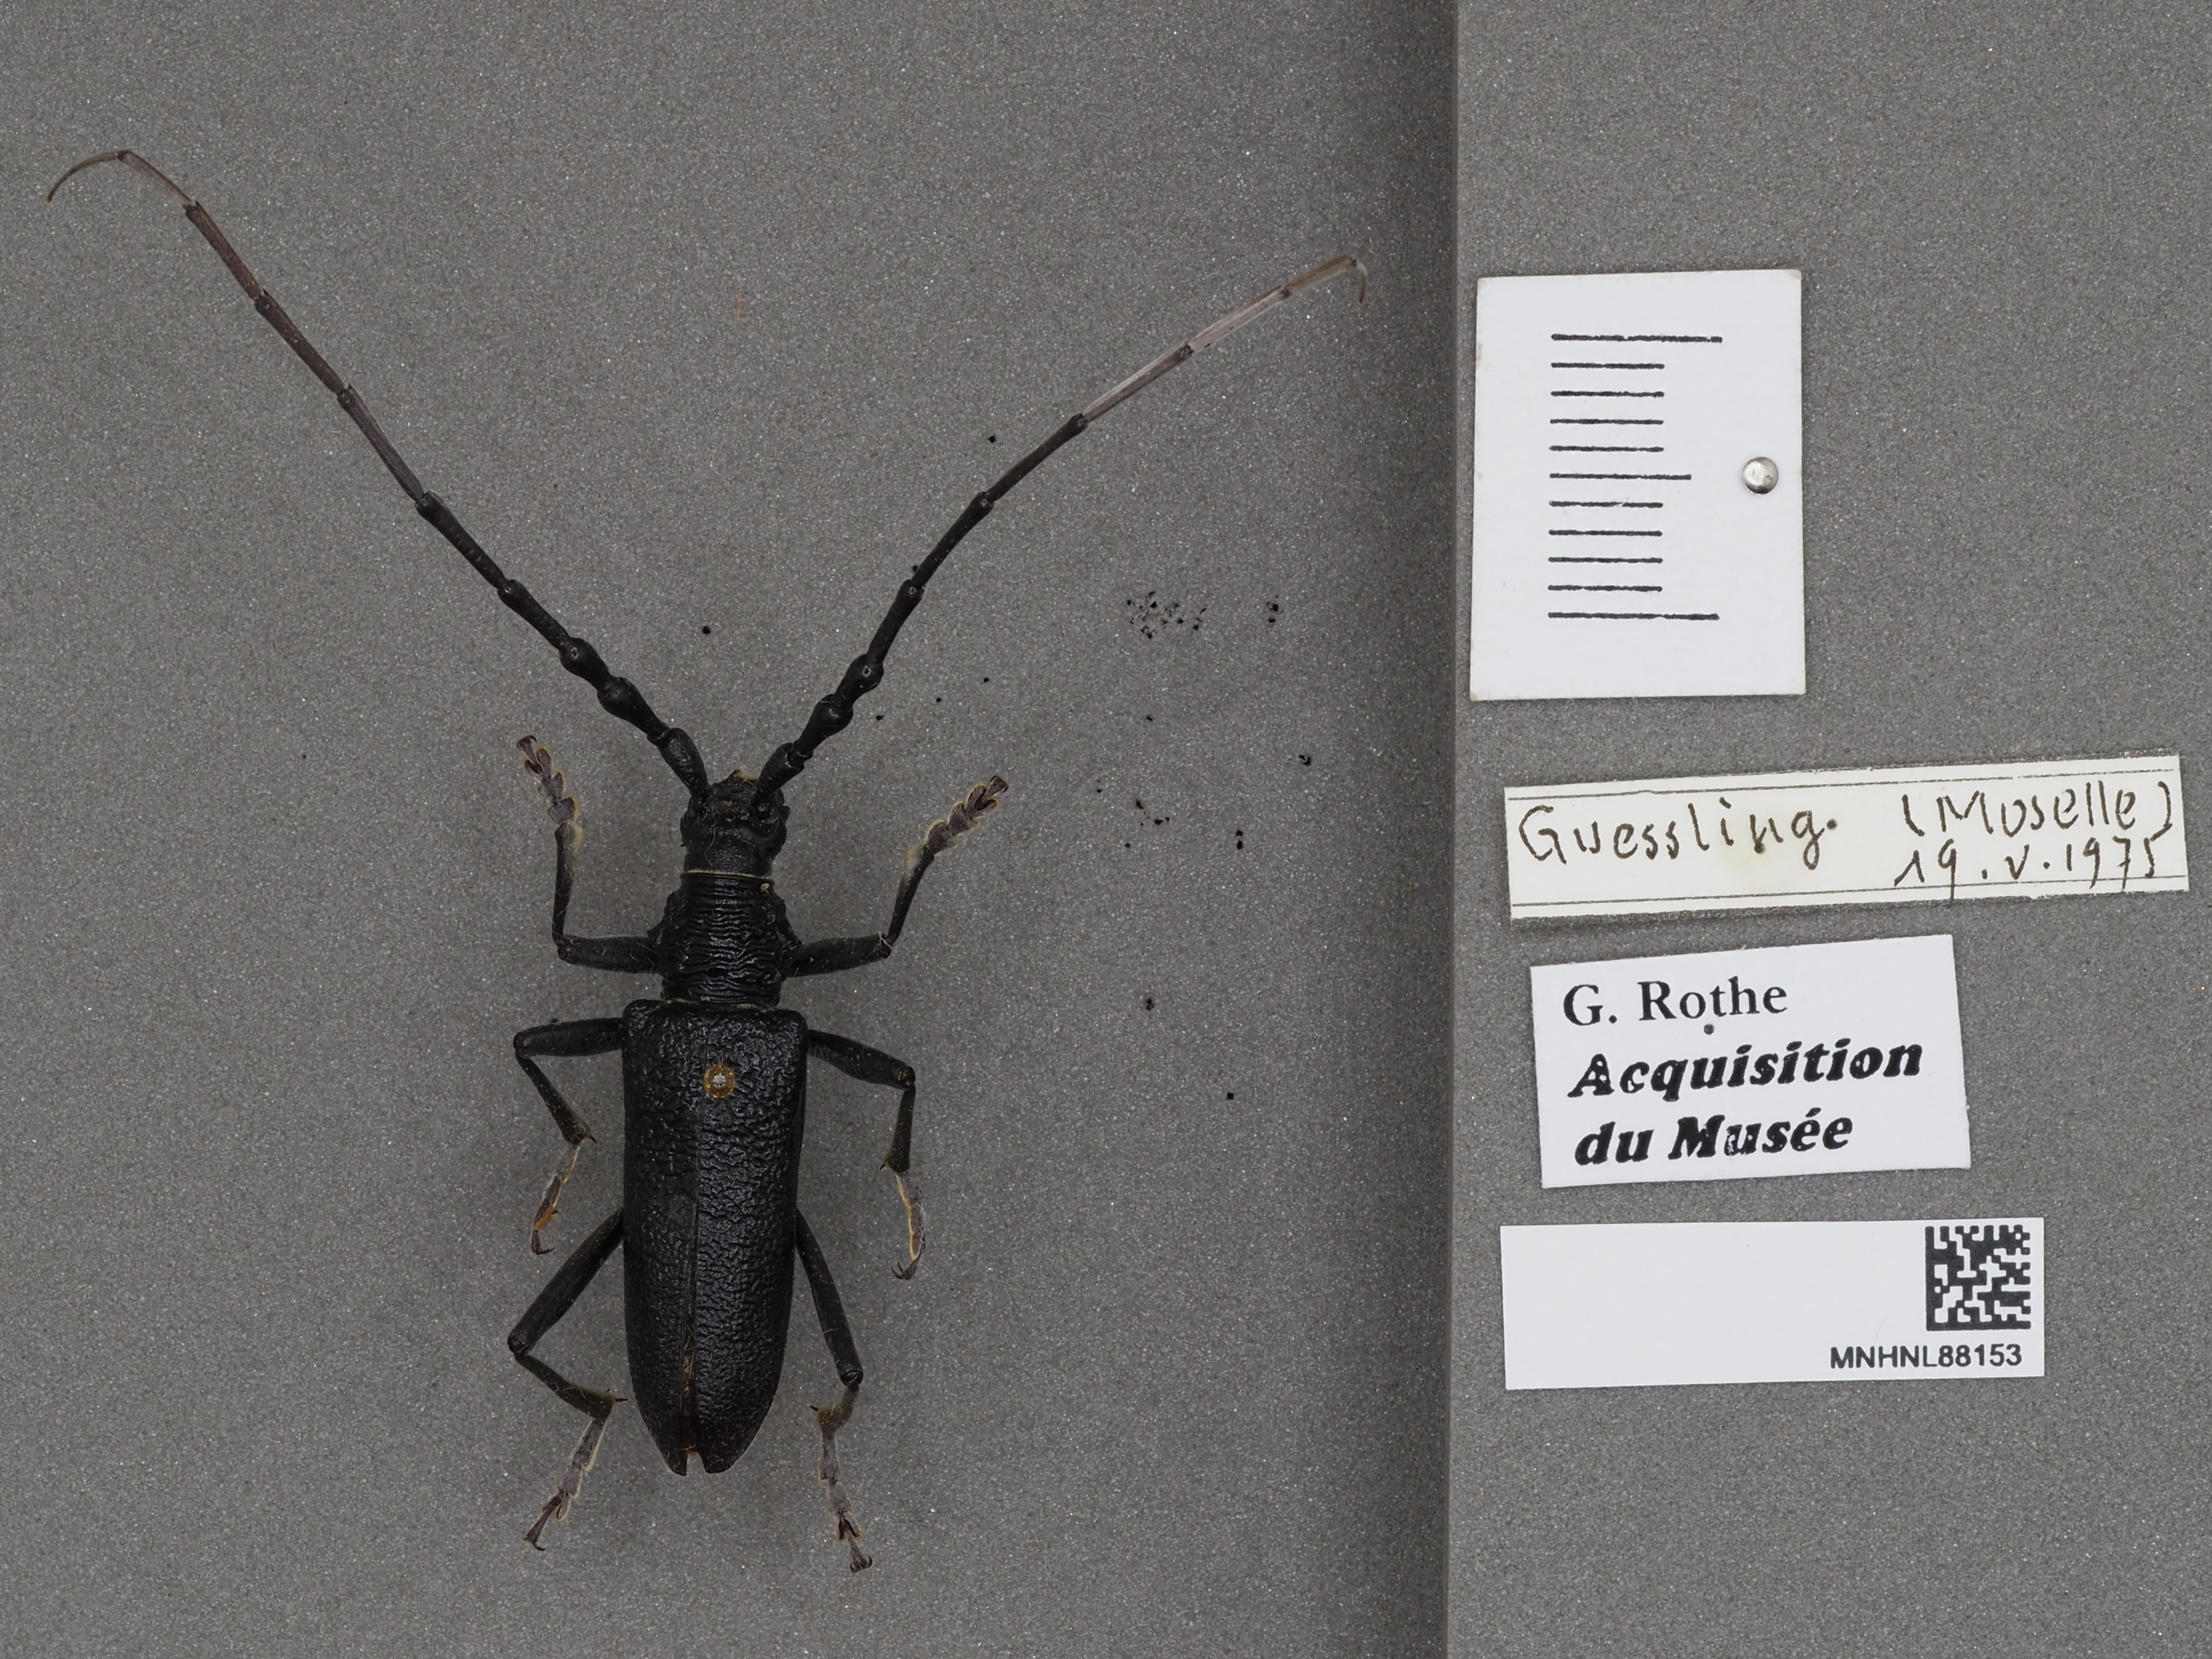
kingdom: Animalia
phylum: Arthropoda
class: Insecta
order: Coleoptera
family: Cerambycidae
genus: Cerambyx
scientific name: Cerambyx scopolii
